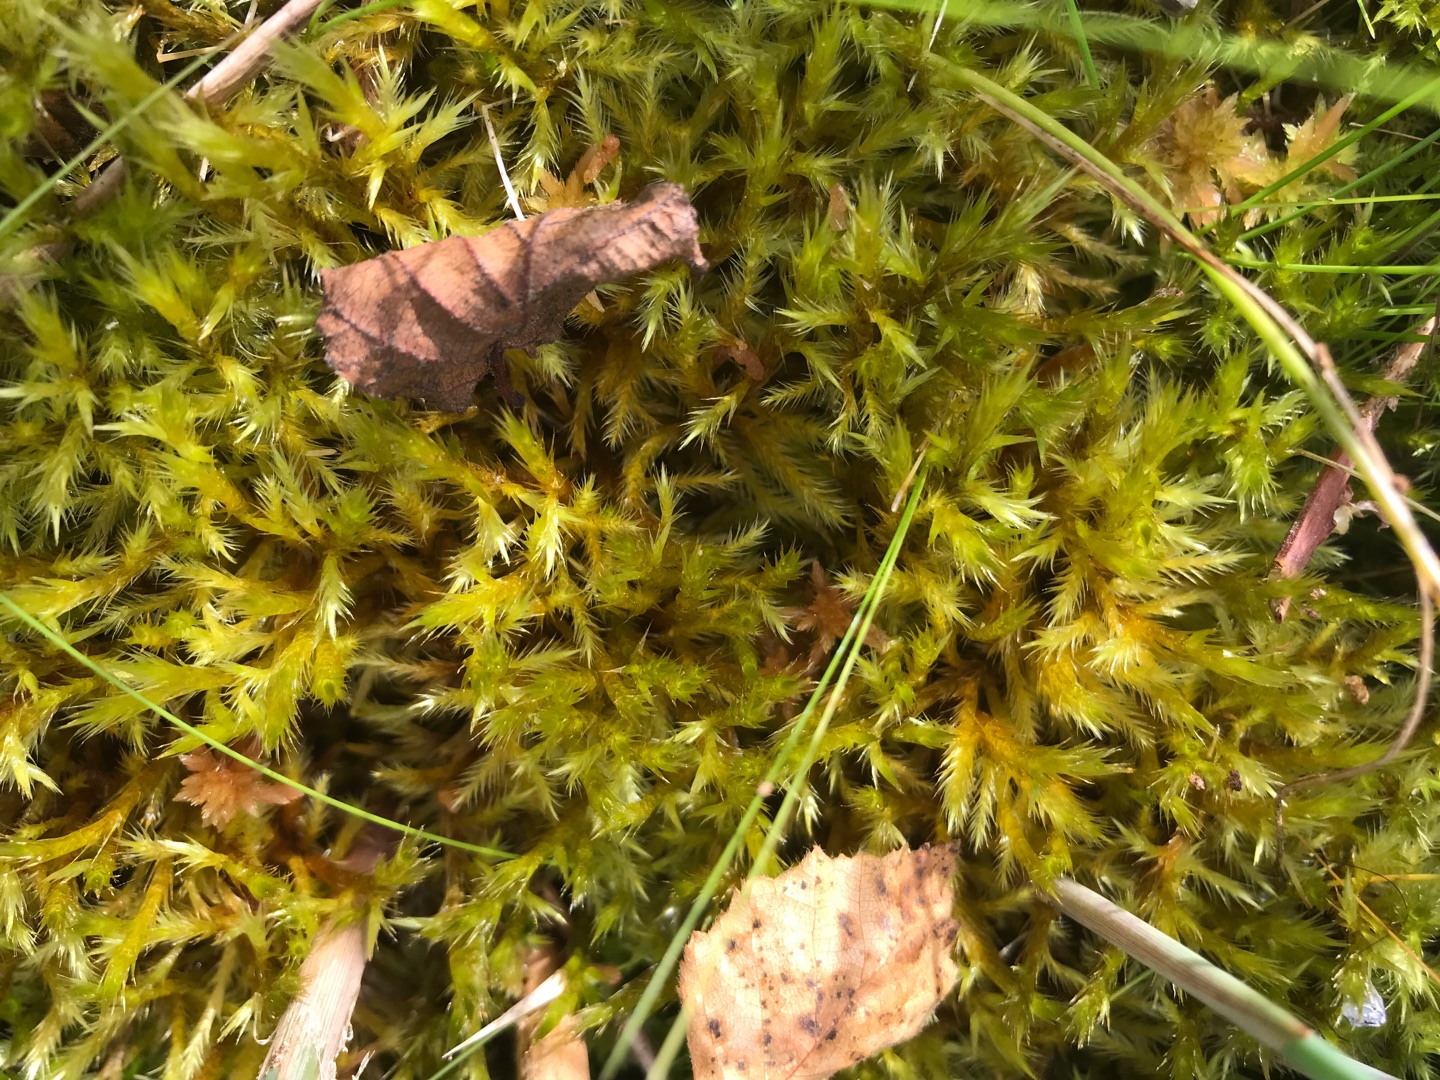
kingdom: Plantae
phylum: Bryophyta
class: Bryopsida
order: Hypnales
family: Amblystegiaceae
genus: Tomentypnum
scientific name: Tomentypnum nitens
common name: Glinsende kærmos
